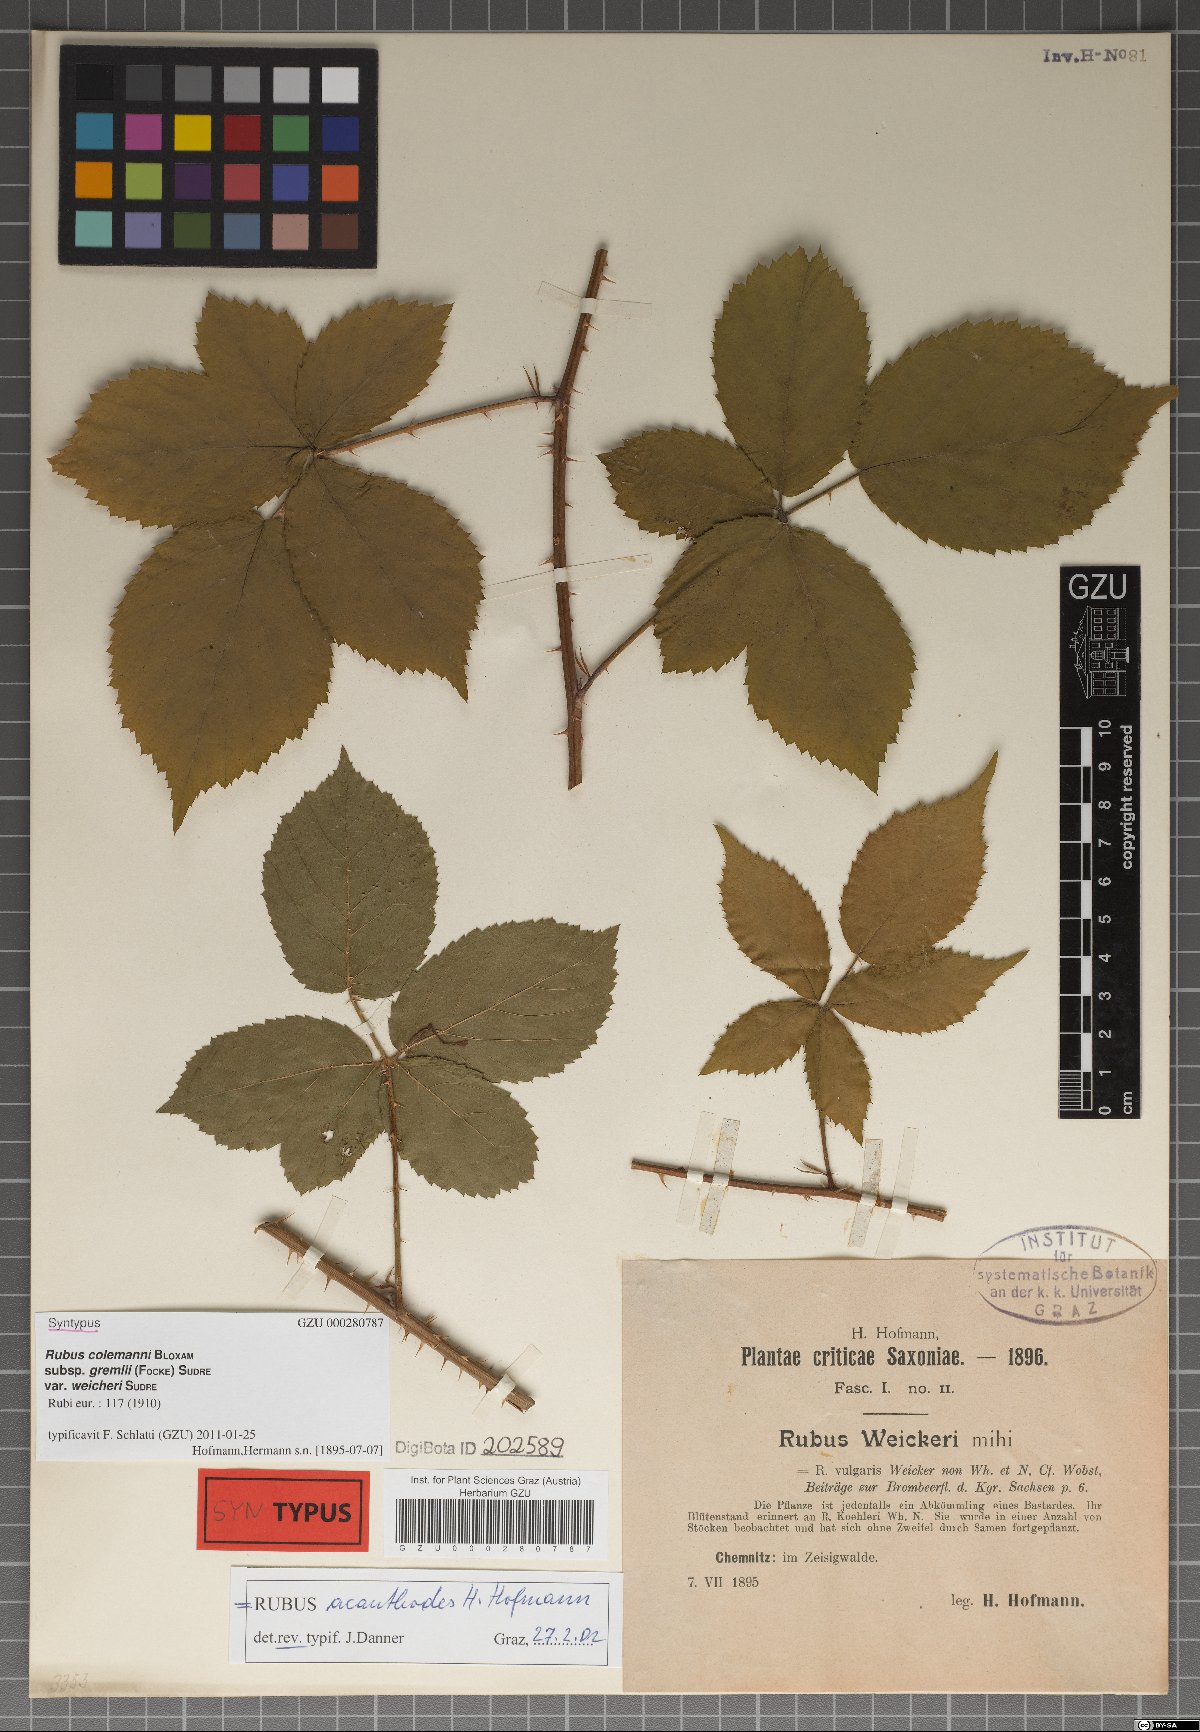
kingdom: Plantae
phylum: Tracheophyta
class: Magnoliopsida
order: Rosales
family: Rosaceae
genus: Rubus
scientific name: Rubus acanthodes
